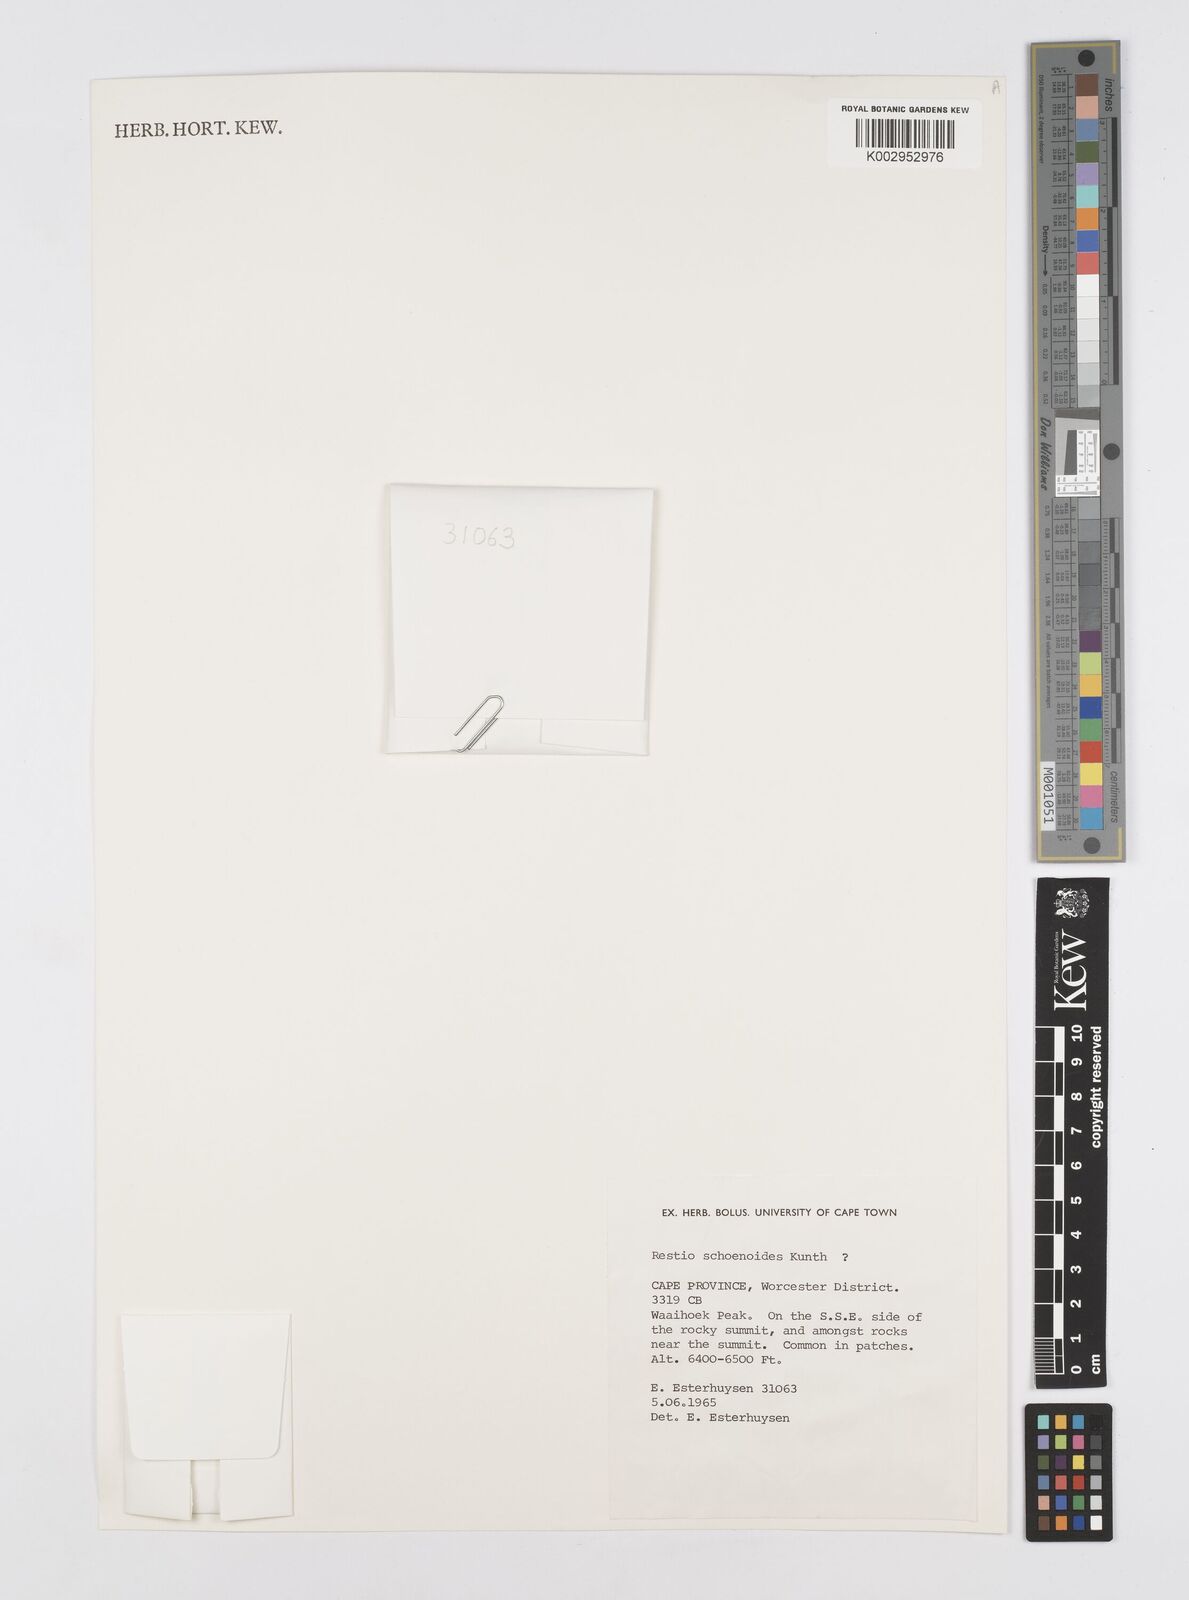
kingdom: Plantae
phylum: Tracheophyta
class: Liliopsida
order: Poales
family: Restionaceae
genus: Restio
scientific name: Restio schoenoides
